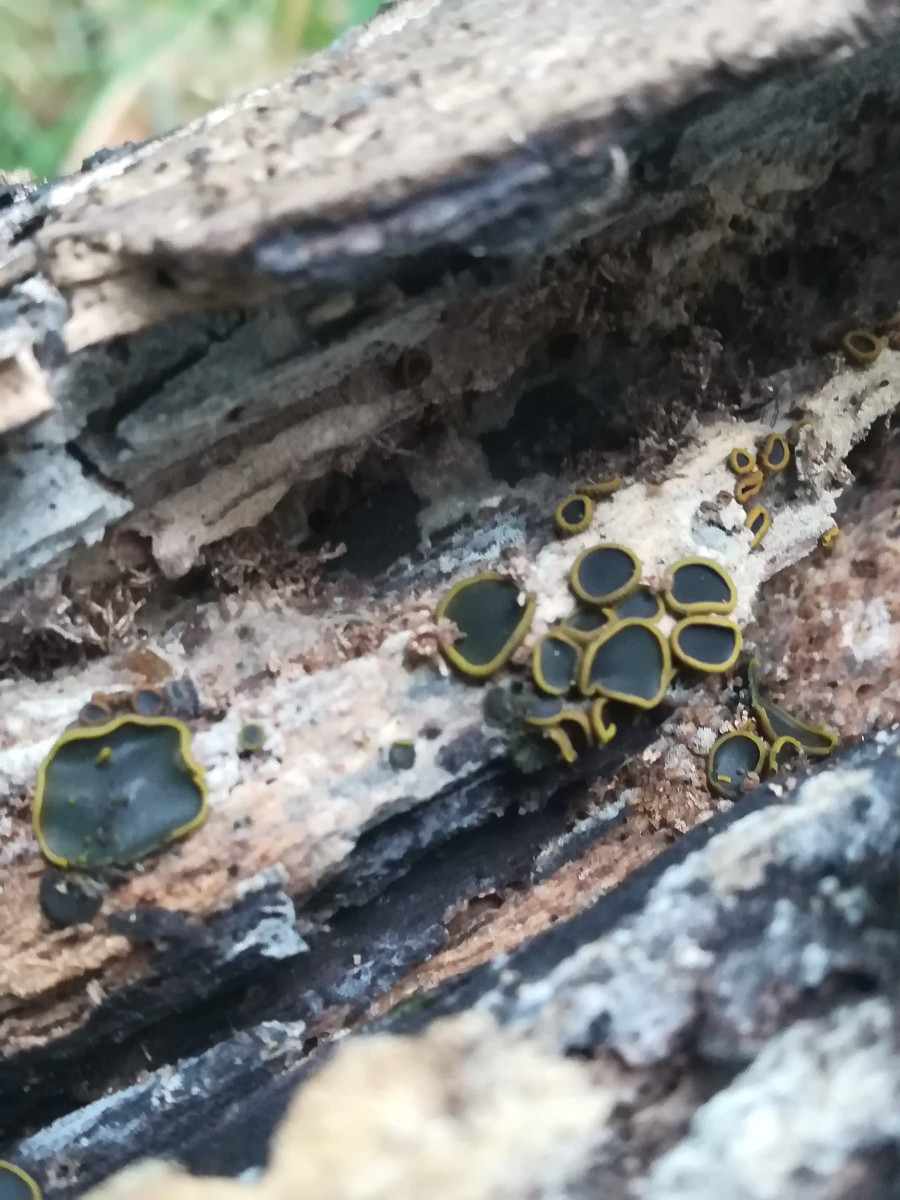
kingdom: Fungi
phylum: Ascomycota
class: Dothideomycetes
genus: Catinella
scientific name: Catinella olivacea
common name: olivenskive
